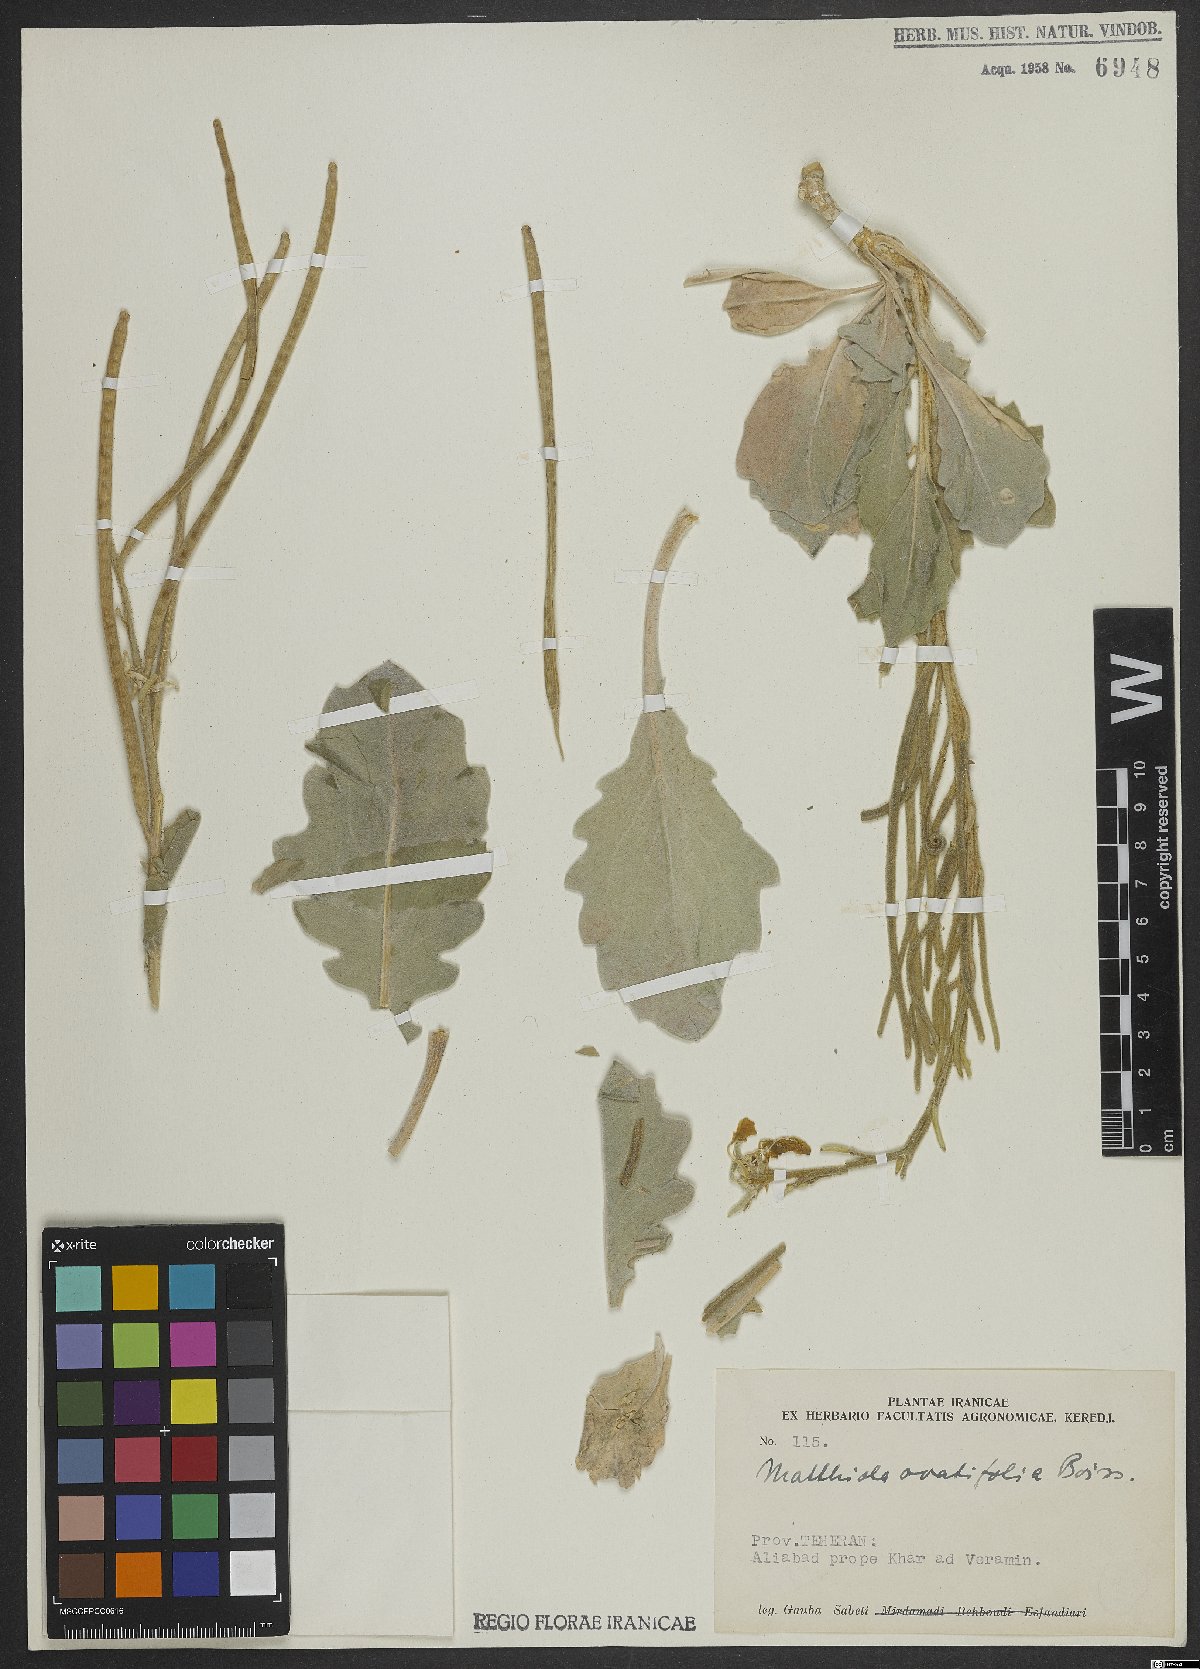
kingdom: Plantae
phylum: Tracheophyta
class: Magnoliopsida
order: Brassicales
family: Brassicaceae
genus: Matthiola
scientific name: Matthiola ovatifolia
